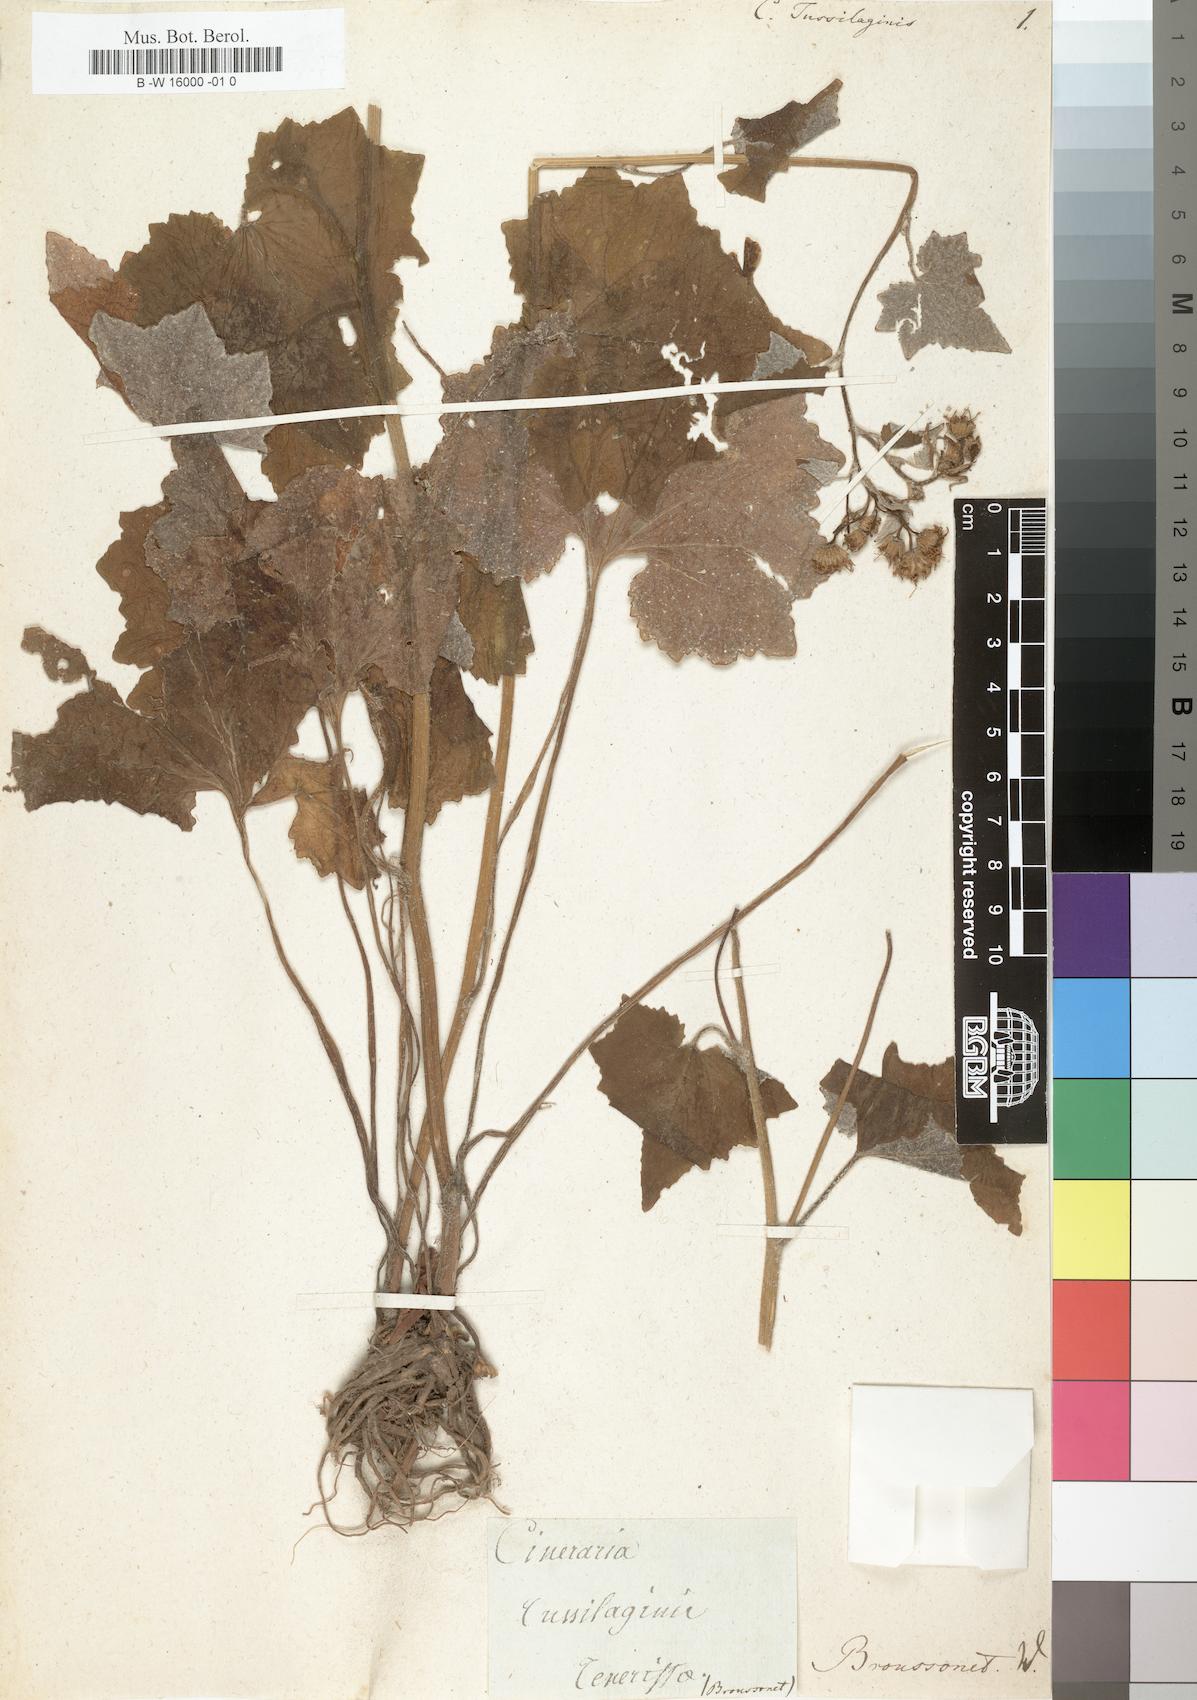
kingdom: Plantae
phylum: Tracheophyta
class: Magnoliopsida
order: Asterales
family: Asteraceae
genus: Pericallis
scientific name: Pericallis tussilaginis
